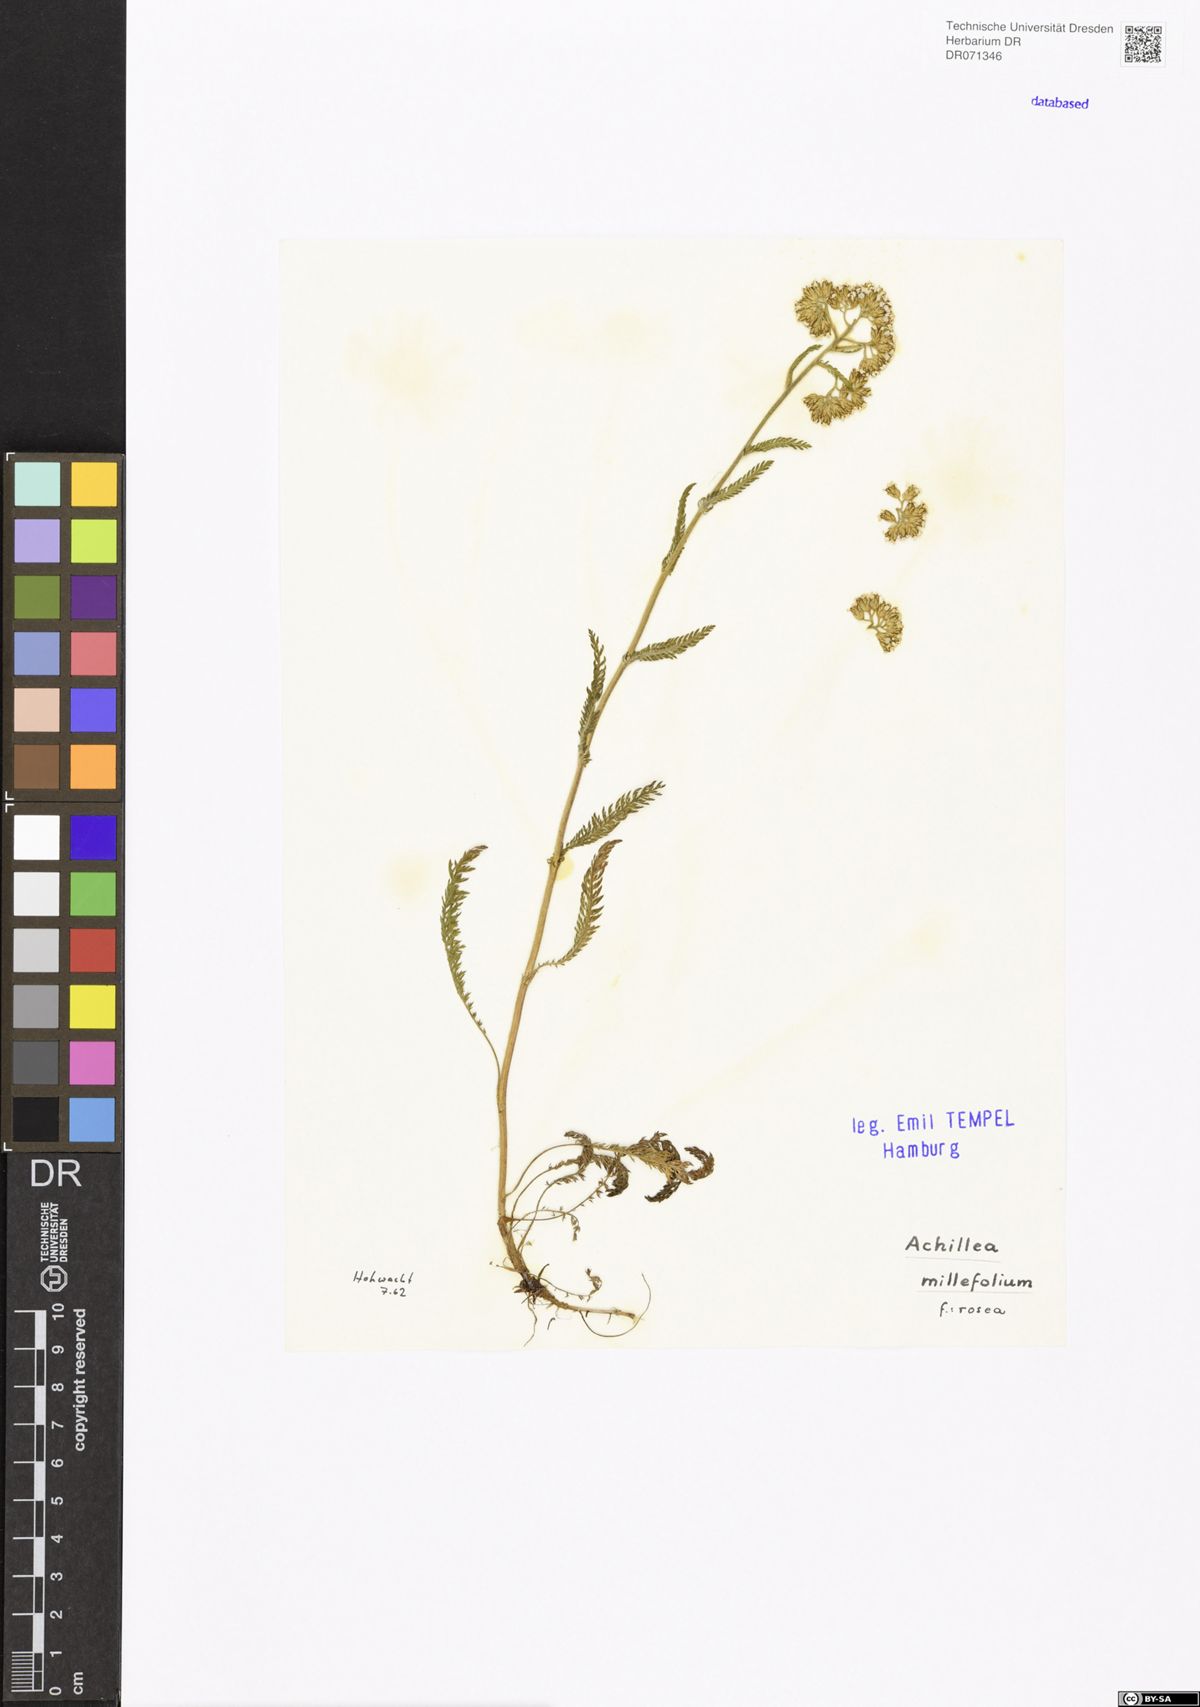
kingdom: Plantae
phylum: Tracheophyta
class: Magnoliopsida
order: Asterales
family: Asteraceae
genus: Achillea
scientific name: Achillea millefolium
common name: Yarrow
